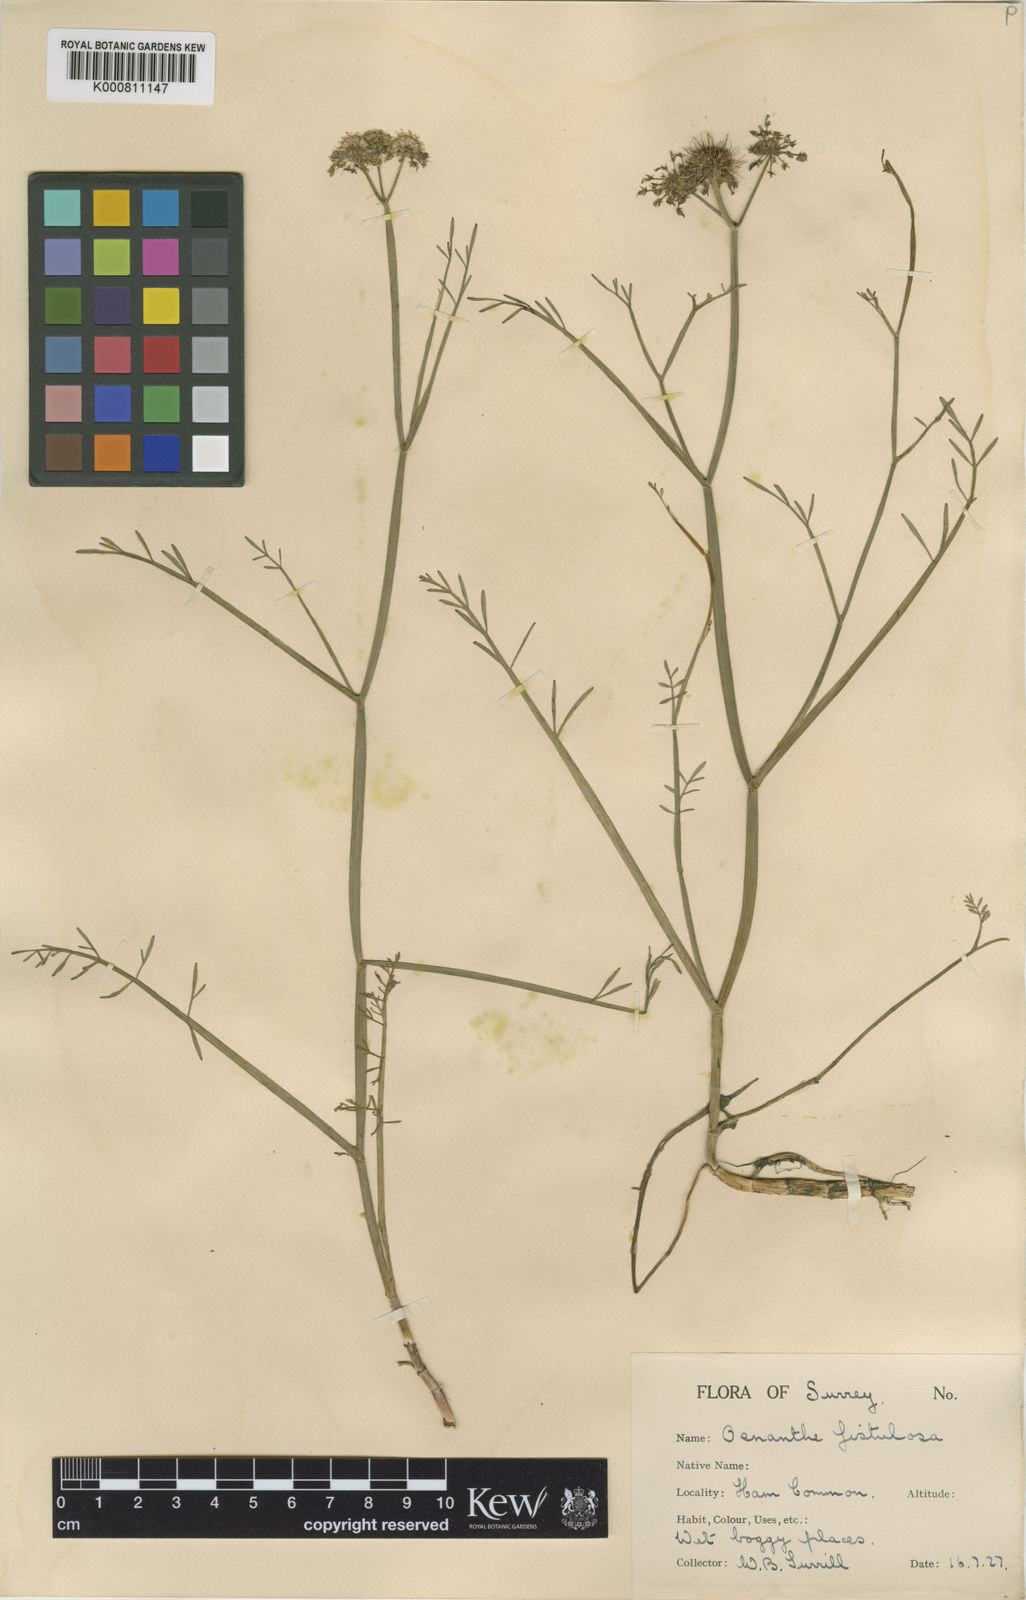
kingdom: Plantae
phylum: Tracheophyta
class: Magnoliopsida
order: Apiales
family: Apiaceae
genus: Oenanthe
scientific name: Oenanthe fistulosa
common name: Tubular water-dropwort
